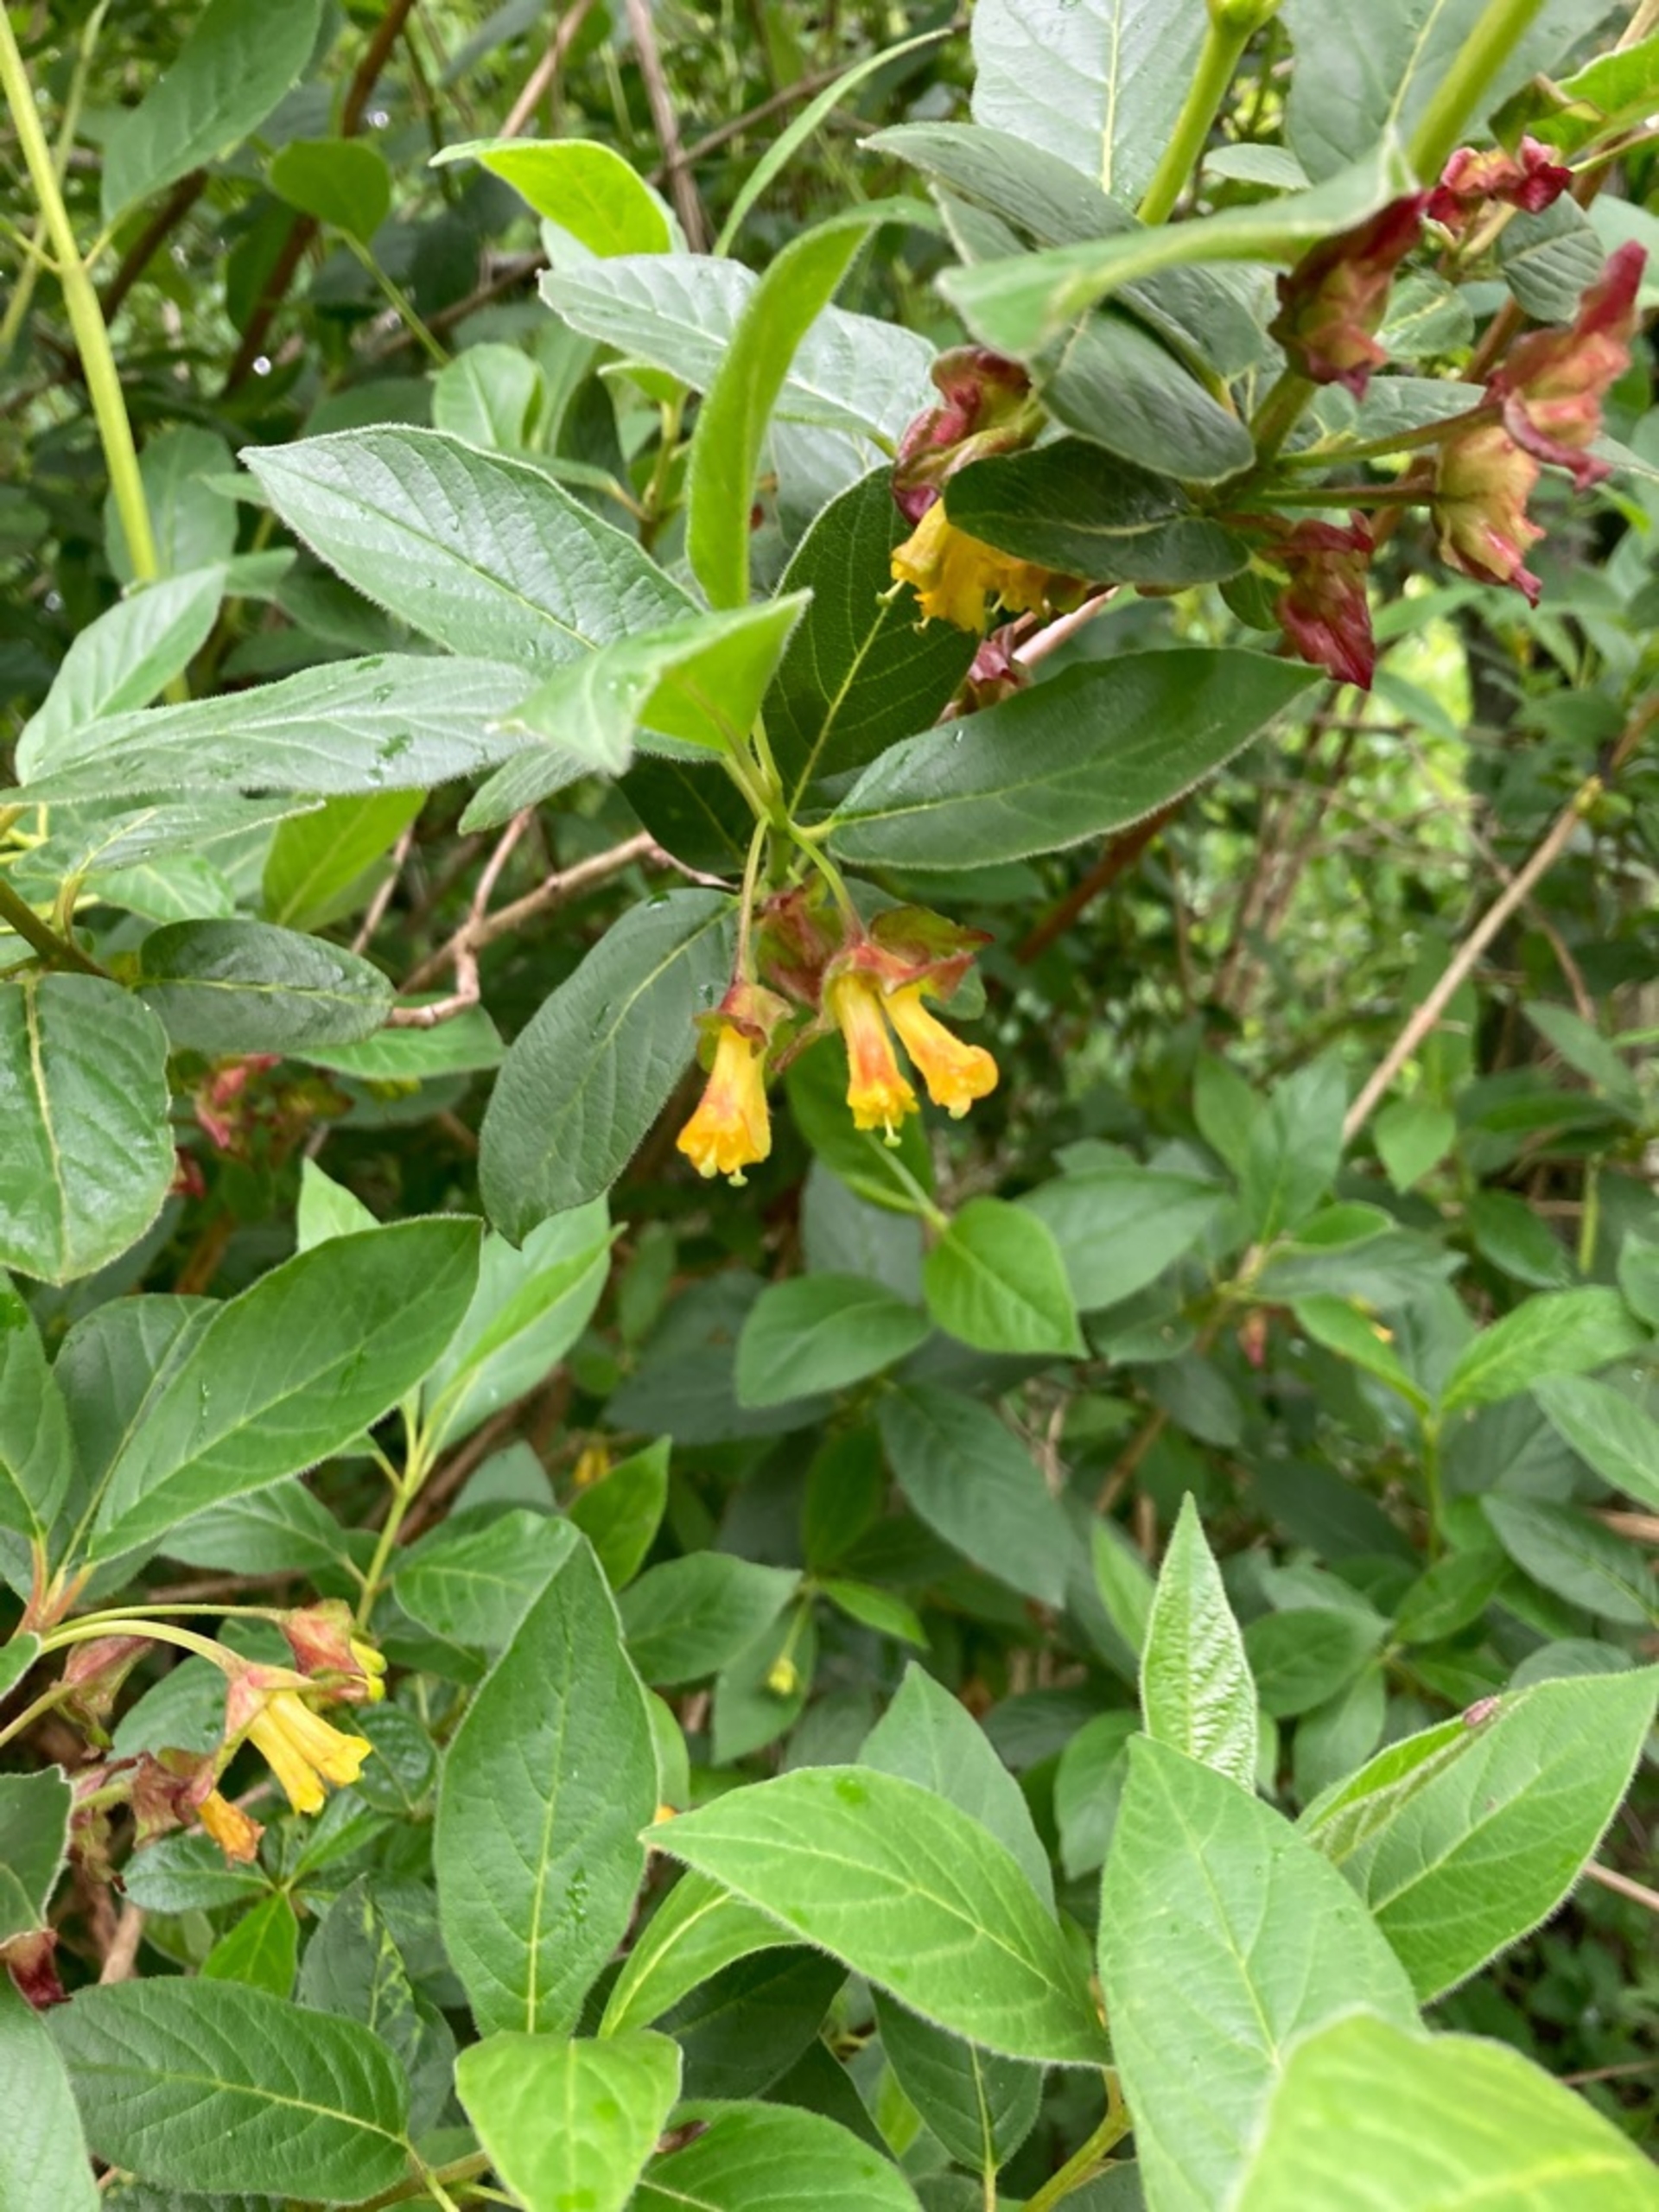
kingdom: Plantae
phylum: Tracheophyta
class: Magnoliopsida
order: Dipsacales
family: Caprifoliaceae
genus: Lonicera
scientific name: Lonicera involucrata
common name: Svøb-gedeblad
